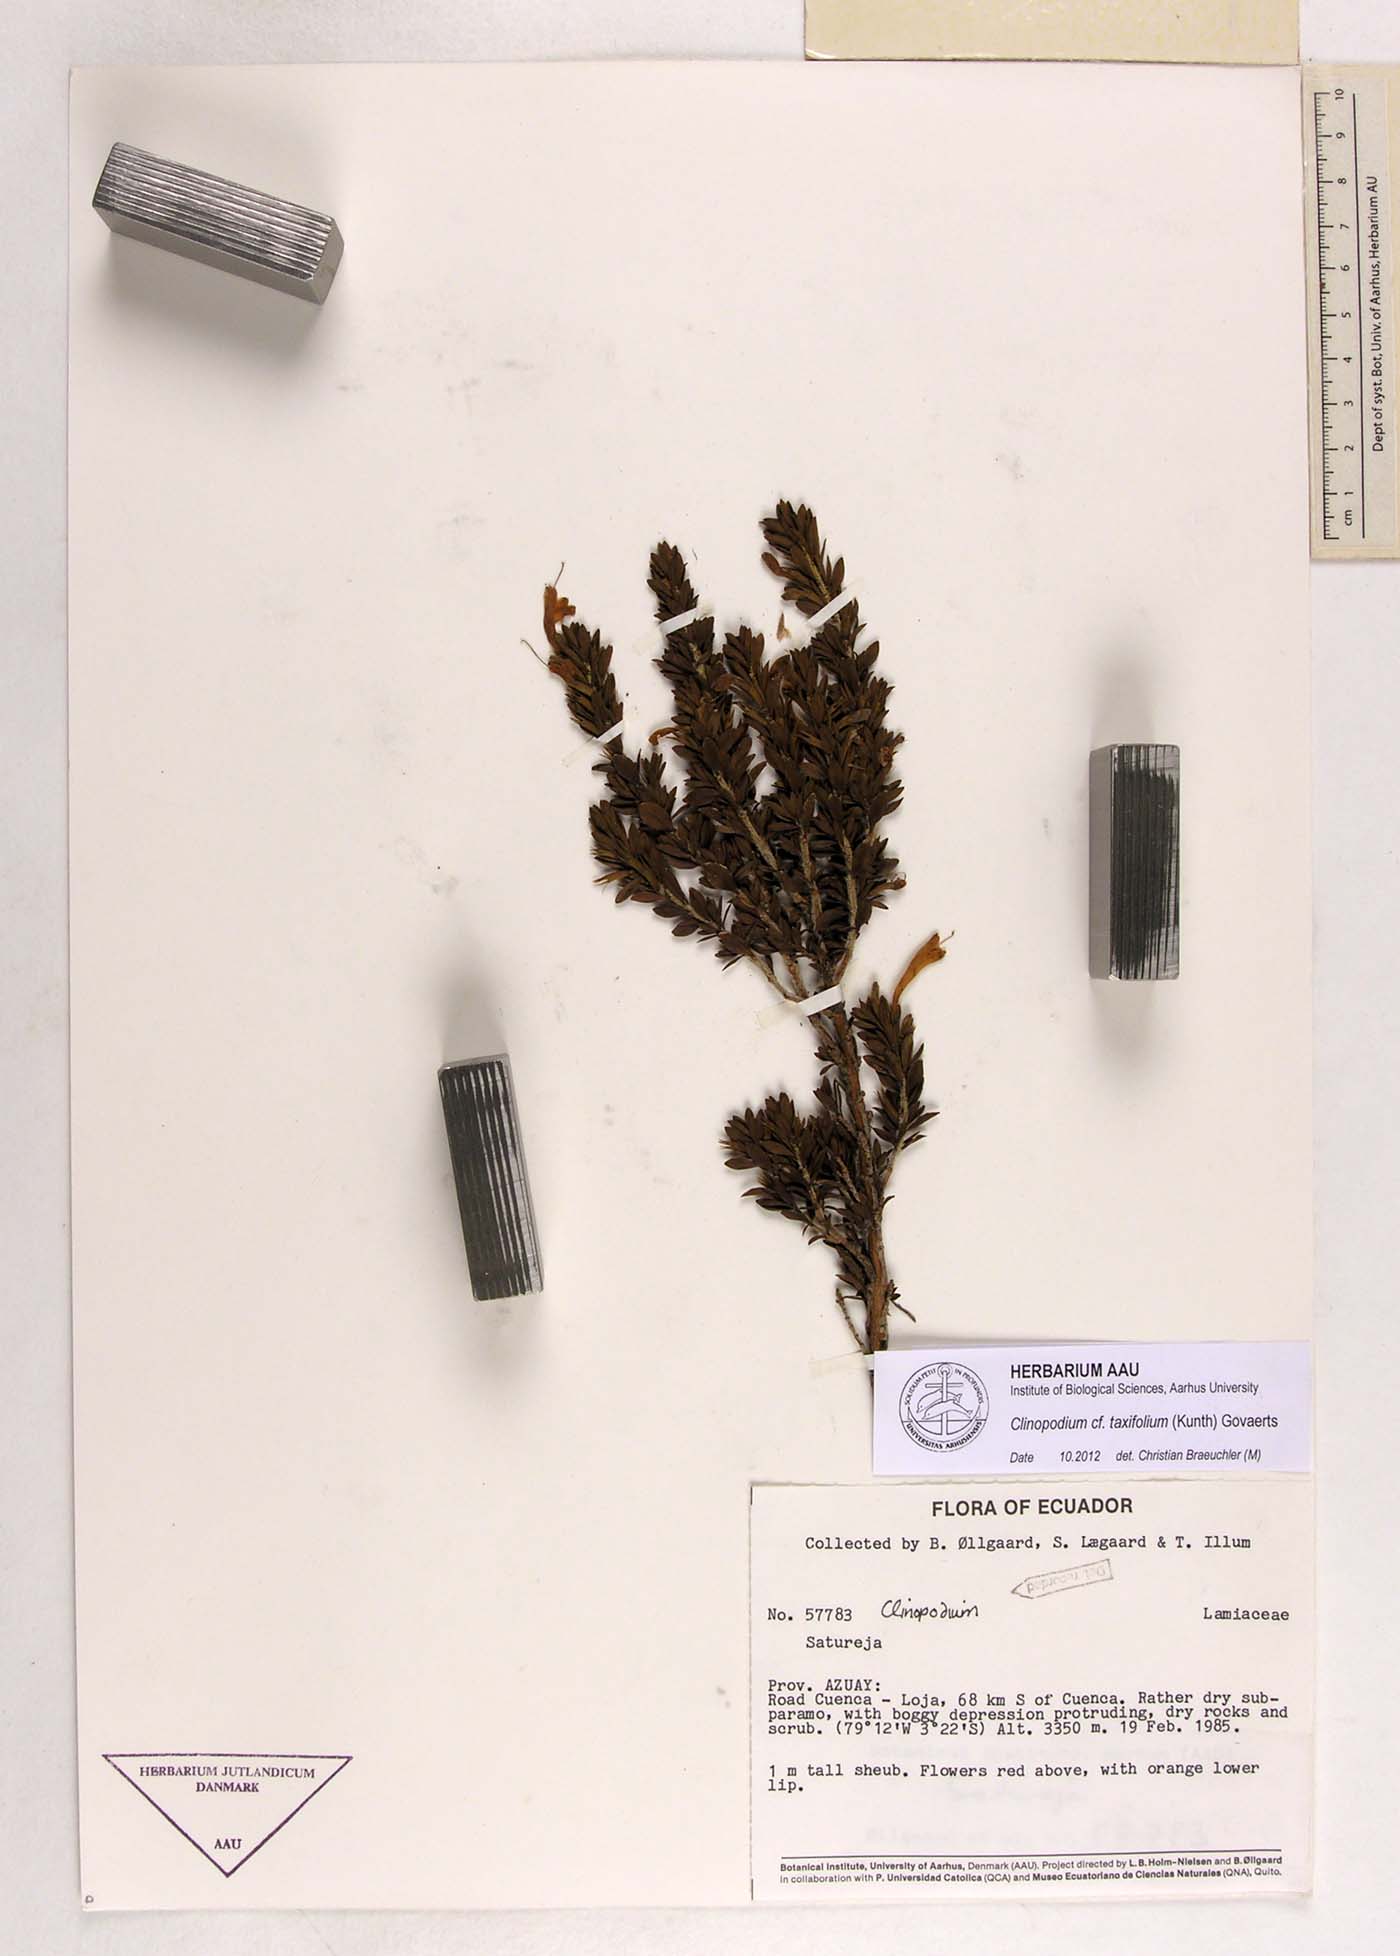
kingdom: Plantae
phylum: Tracheophyta
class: Magnoliopsida
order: Lamiales
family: Lamiaceae
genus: Clinopodium
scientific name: Clinopodium taxifolium
